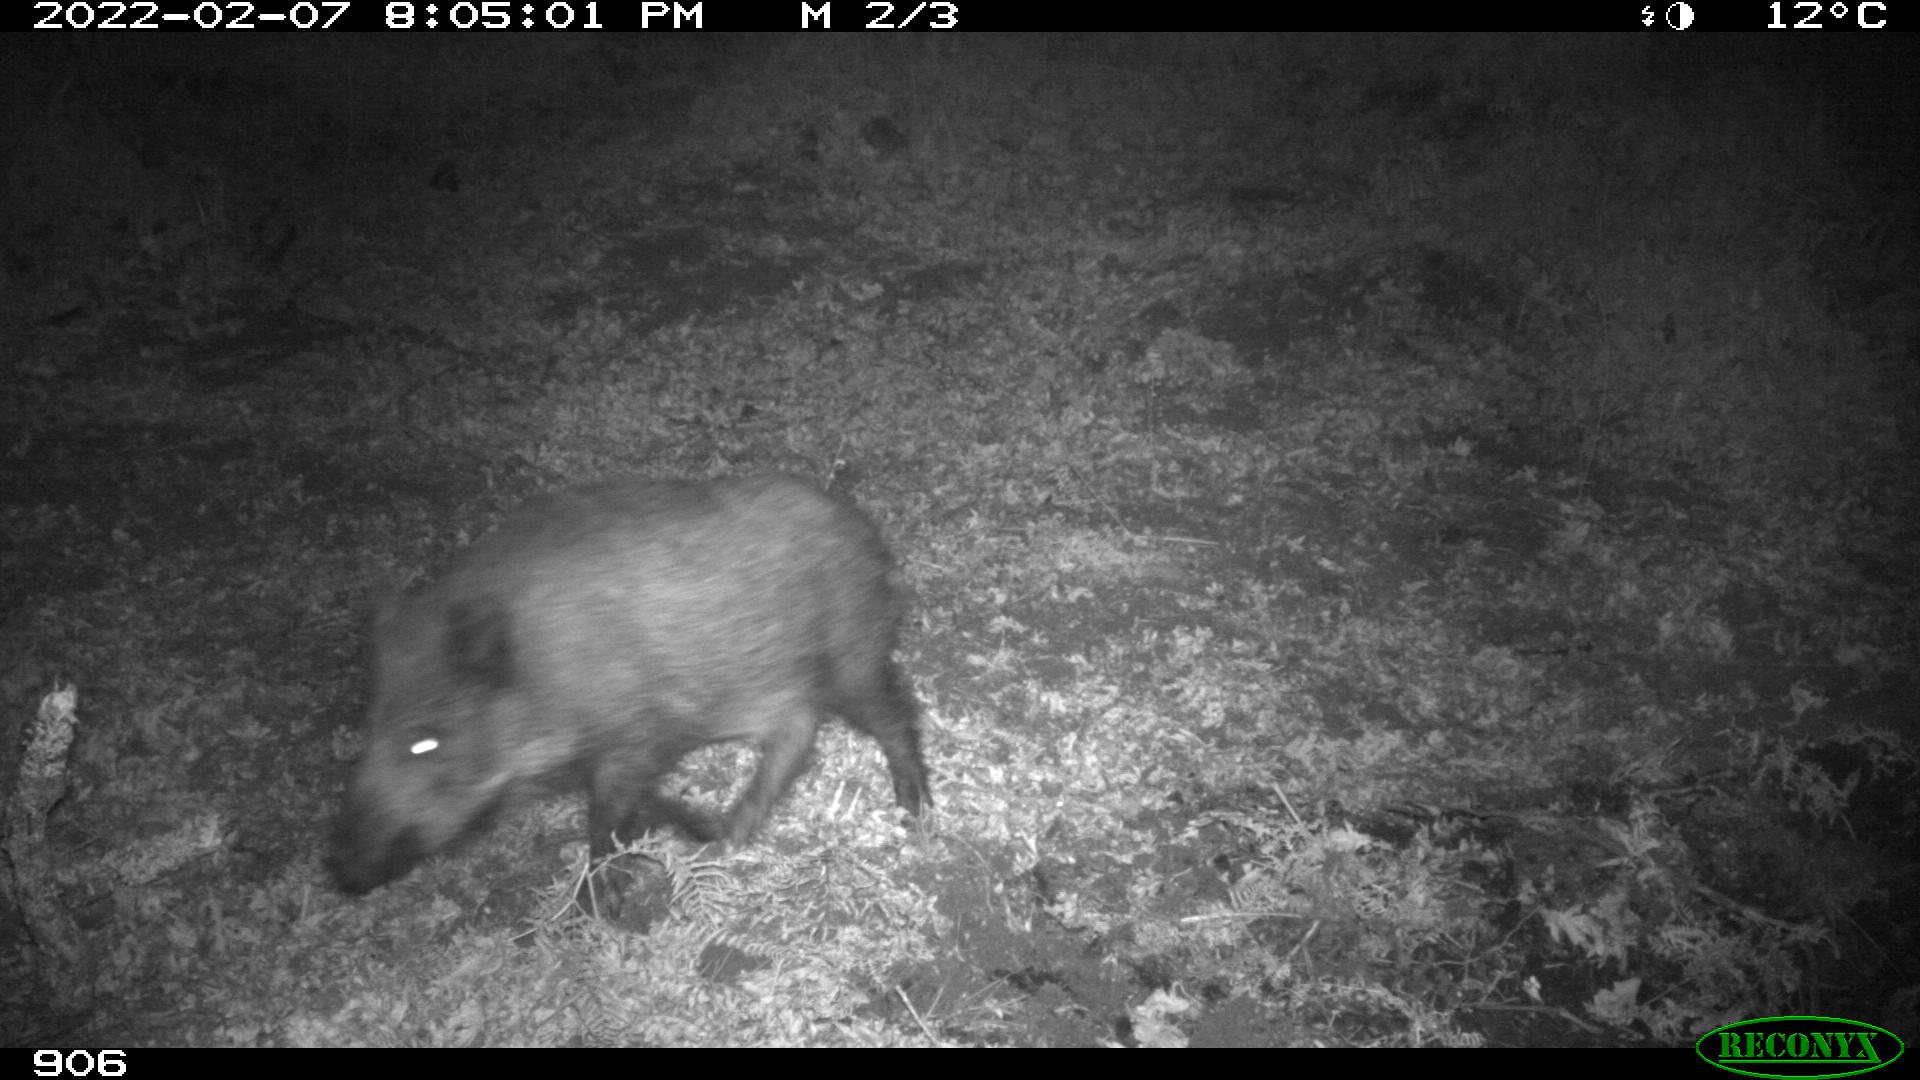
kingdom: Animalia
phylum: Chordata
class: Mammalia
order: Artiodactyla
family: Suidae
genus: Sus
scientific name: Sus scrofa
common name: Wild boar
